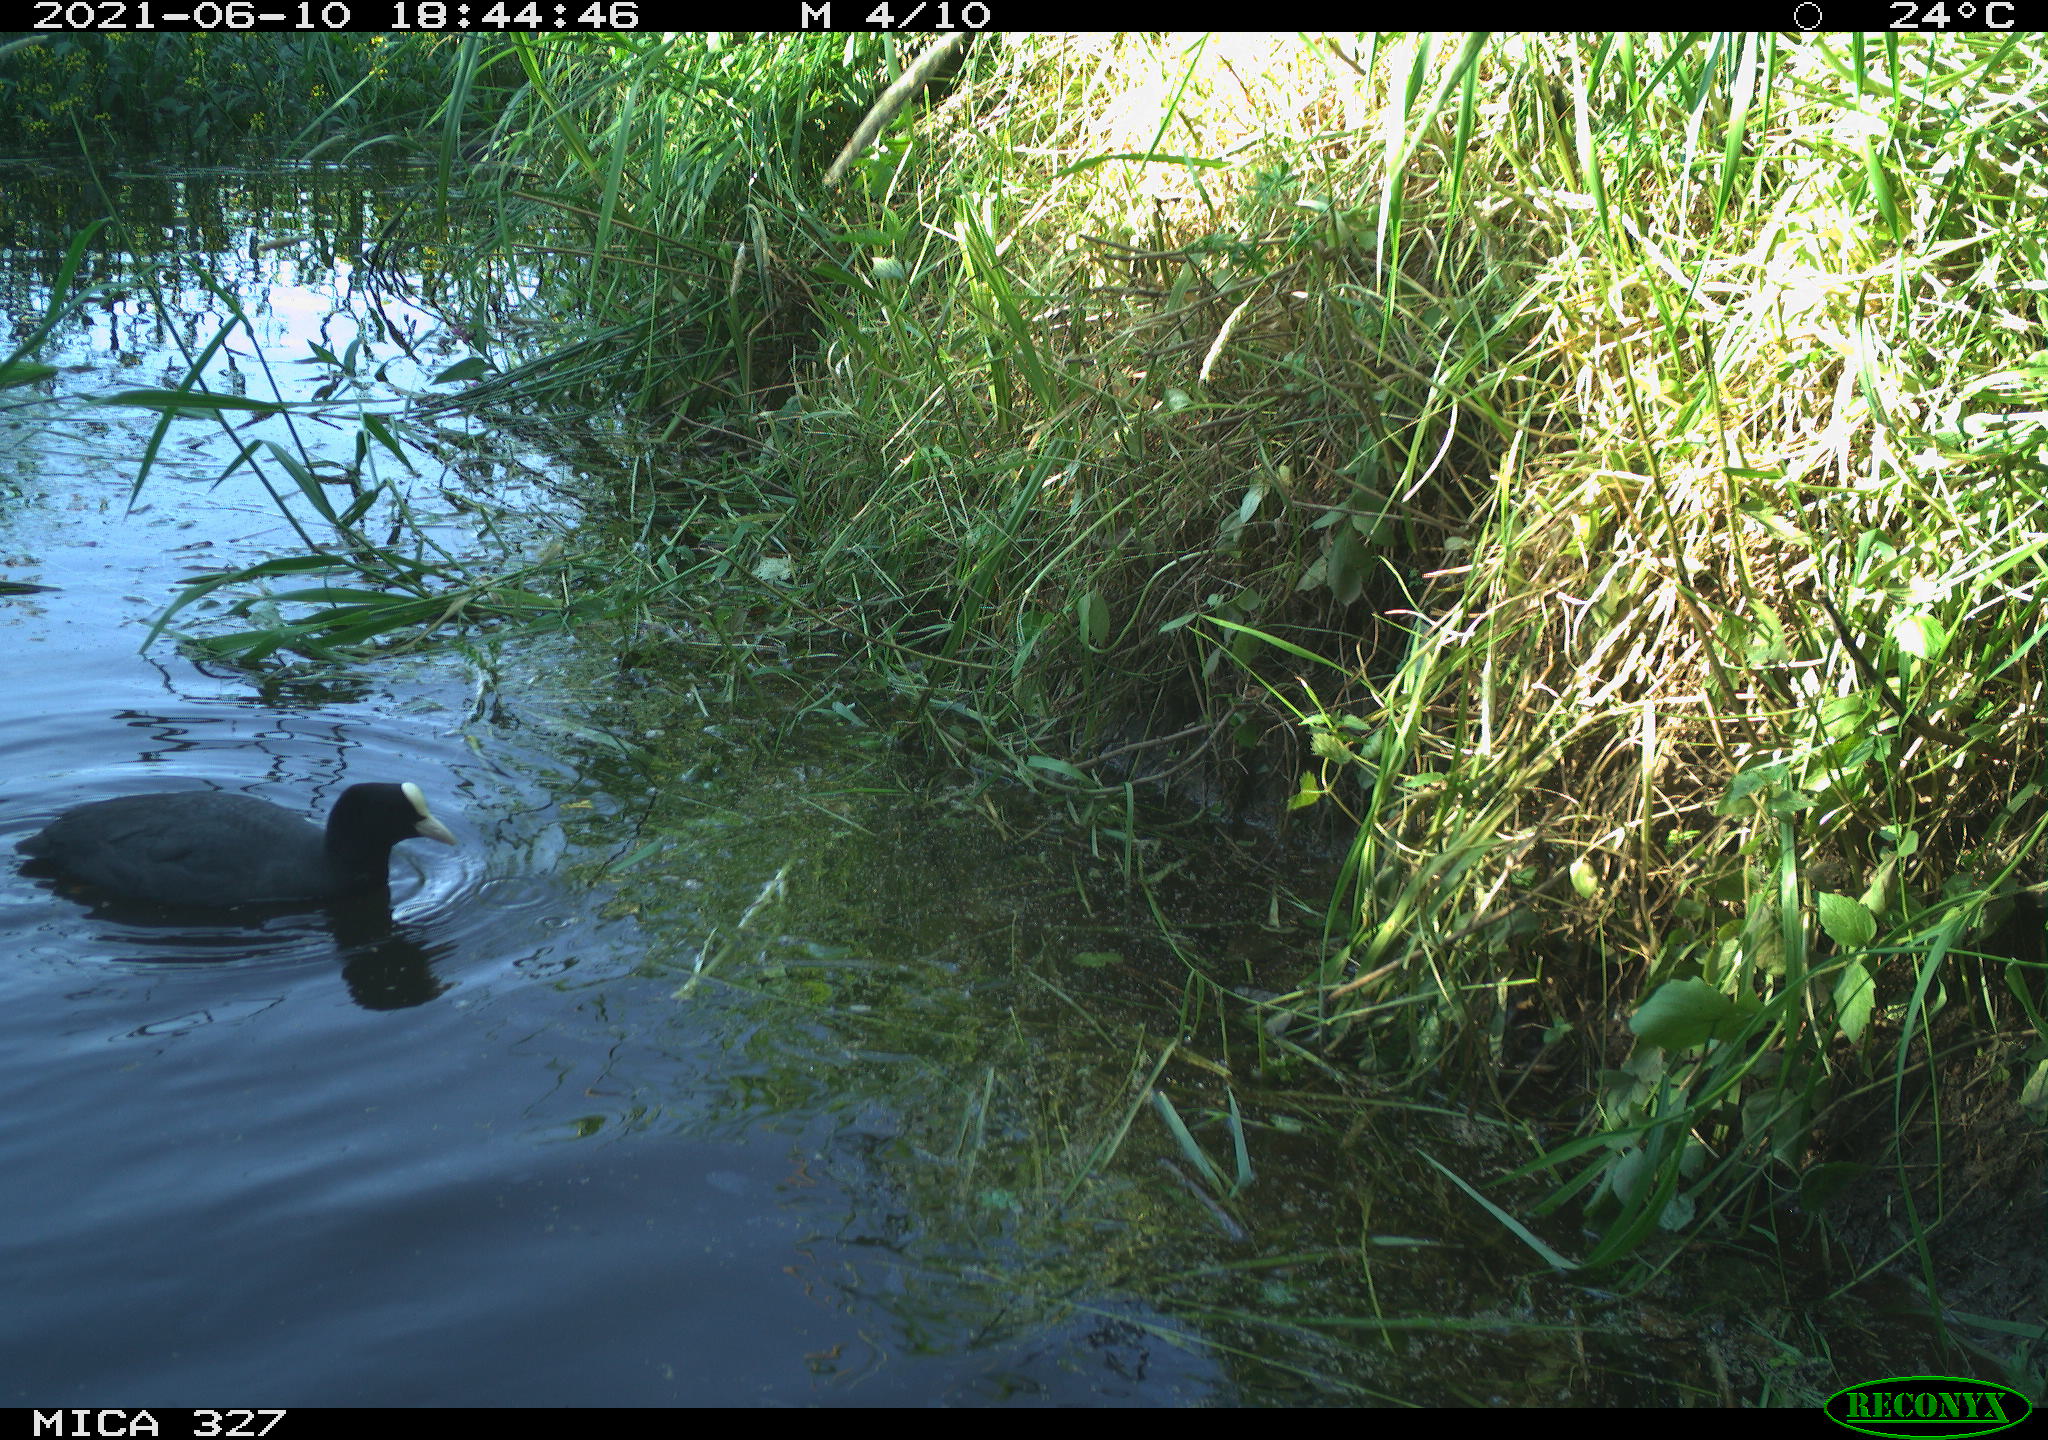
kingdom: Animalia
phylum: Chordata
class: Aves
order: Gruiformes
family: Rallidae
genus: Fulica
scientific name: Fulica atra
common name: Eurasian coot
